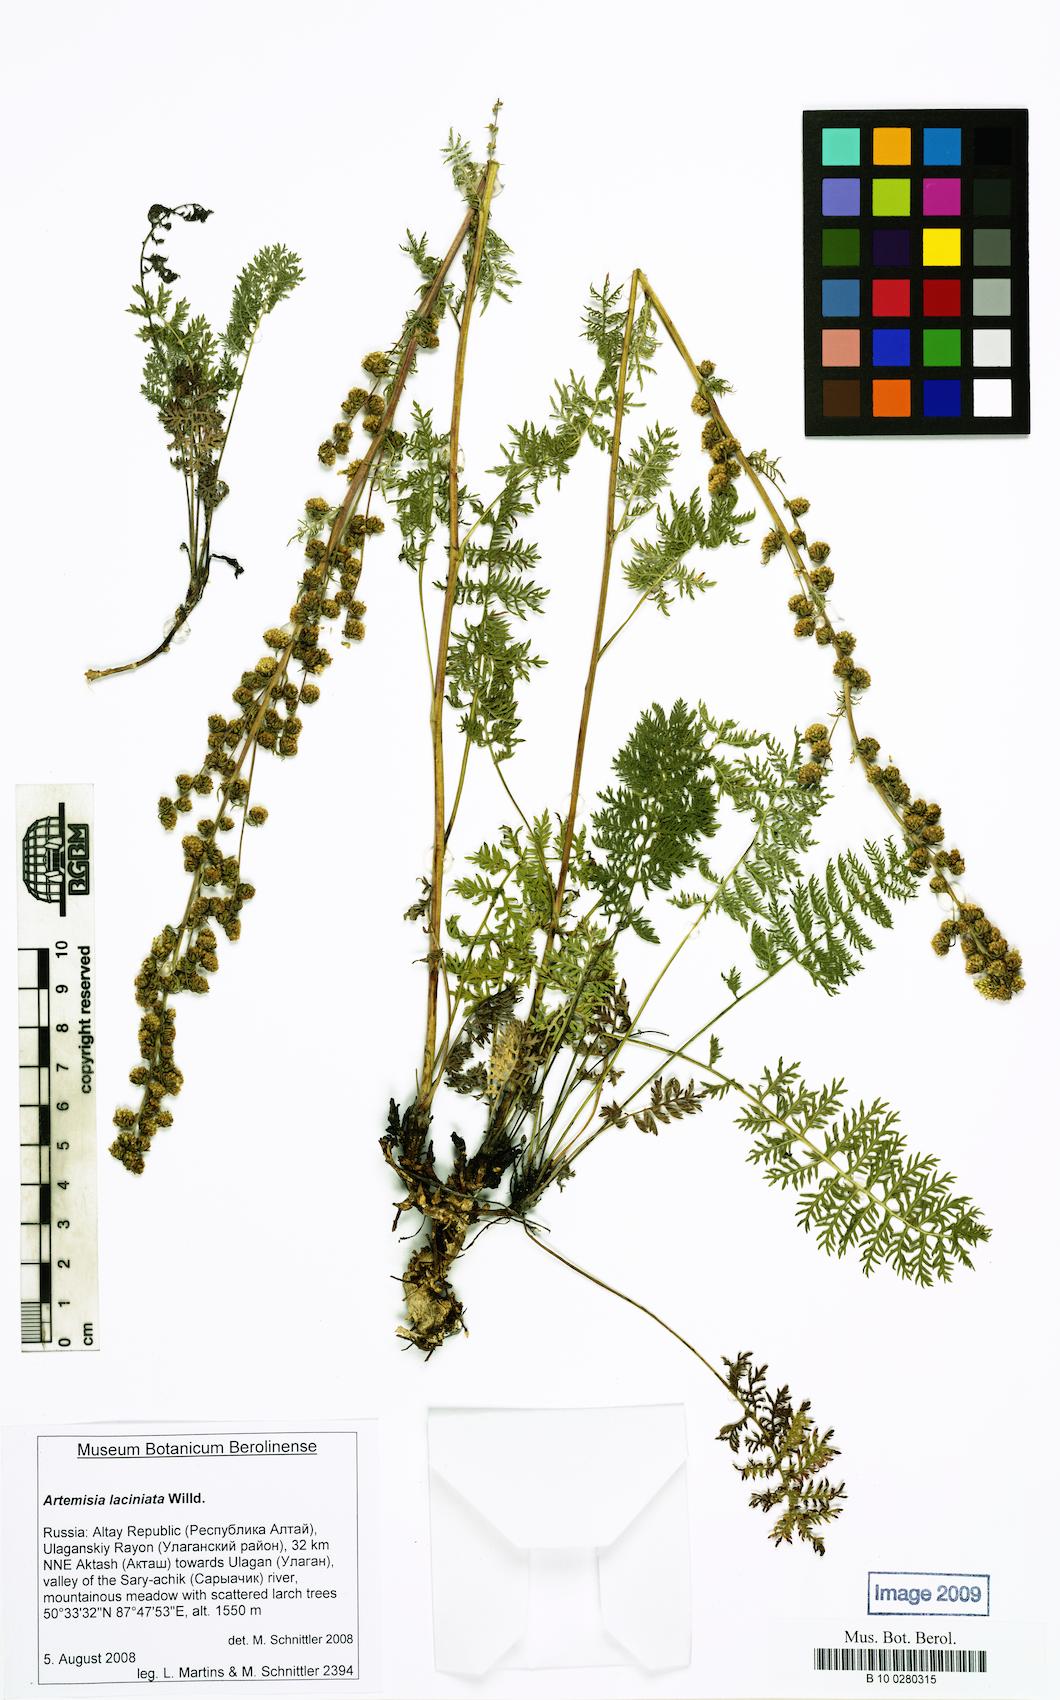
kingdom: Plantae
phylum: Tracheophyta
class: Magnoliopsida
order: Asterales
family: Asteraceae
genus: Artemisia
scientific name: Artemisia laciniata
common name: Siberian wormwood
